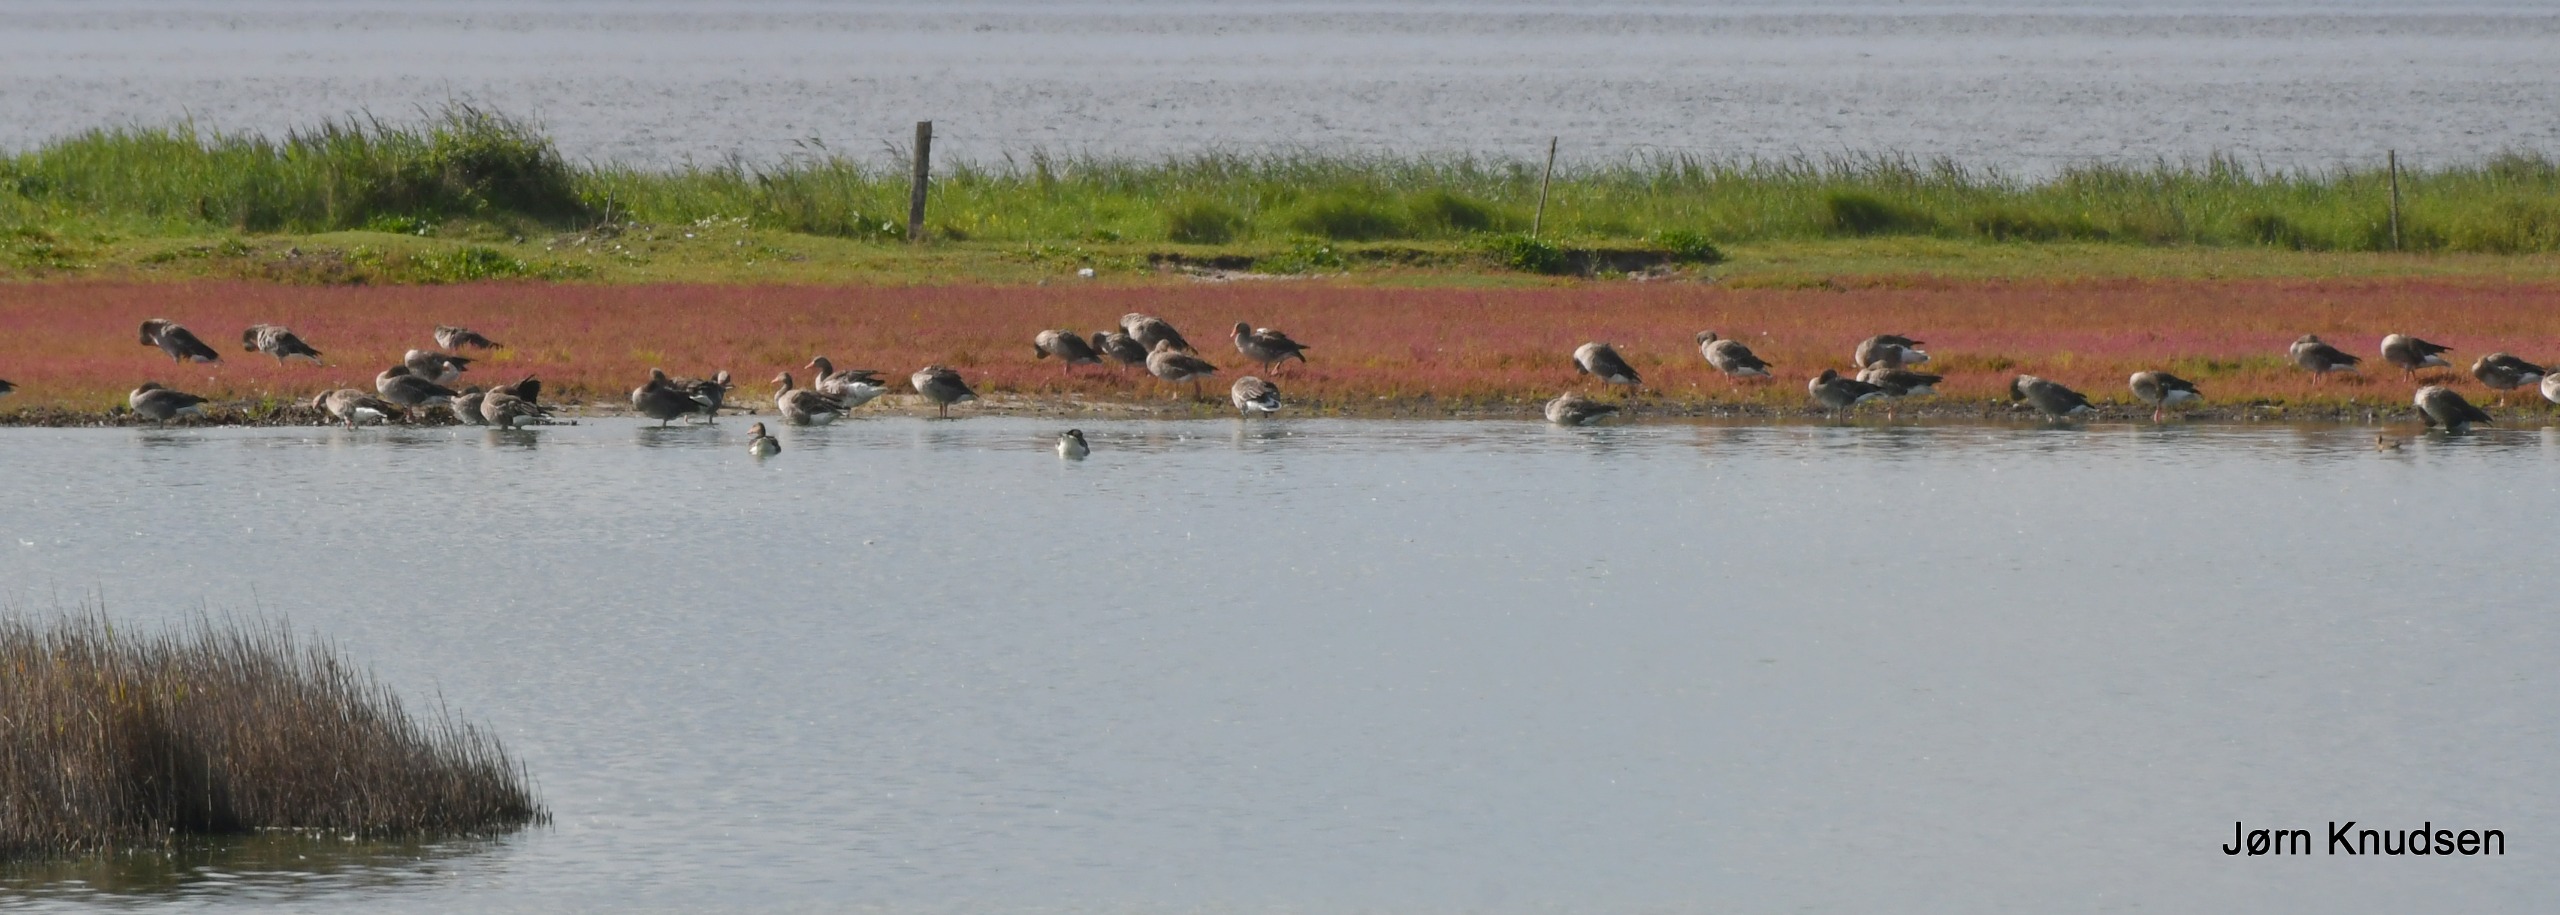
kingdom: Animalia
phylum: Chordata
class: Aves
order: Anseriformes
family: Anatidae
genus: Anser
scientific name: Anser anser
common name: Grågås
